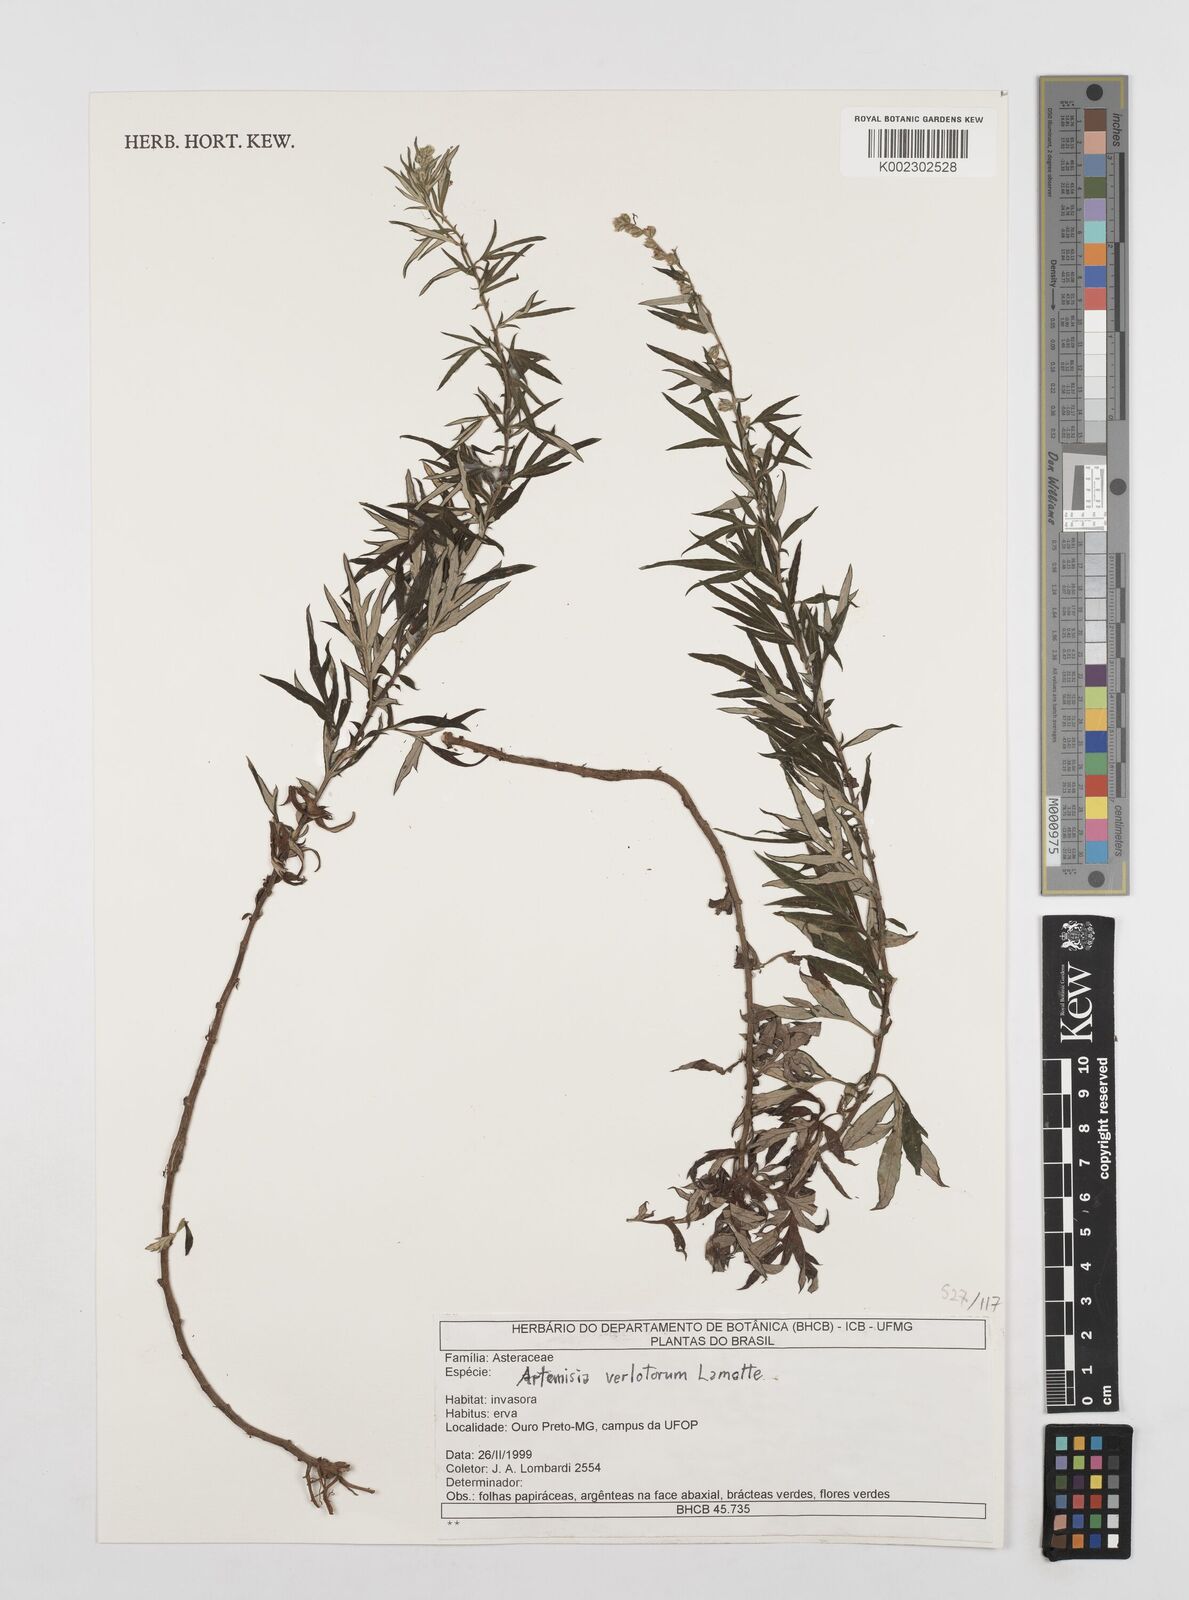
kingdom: Plantae
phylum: Tracheophyta
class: Magnoliopsida
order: Asterales
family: Asteraceae
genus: Artemisia
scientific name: Artemisia verlotiorum
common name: Chinese mugwort
